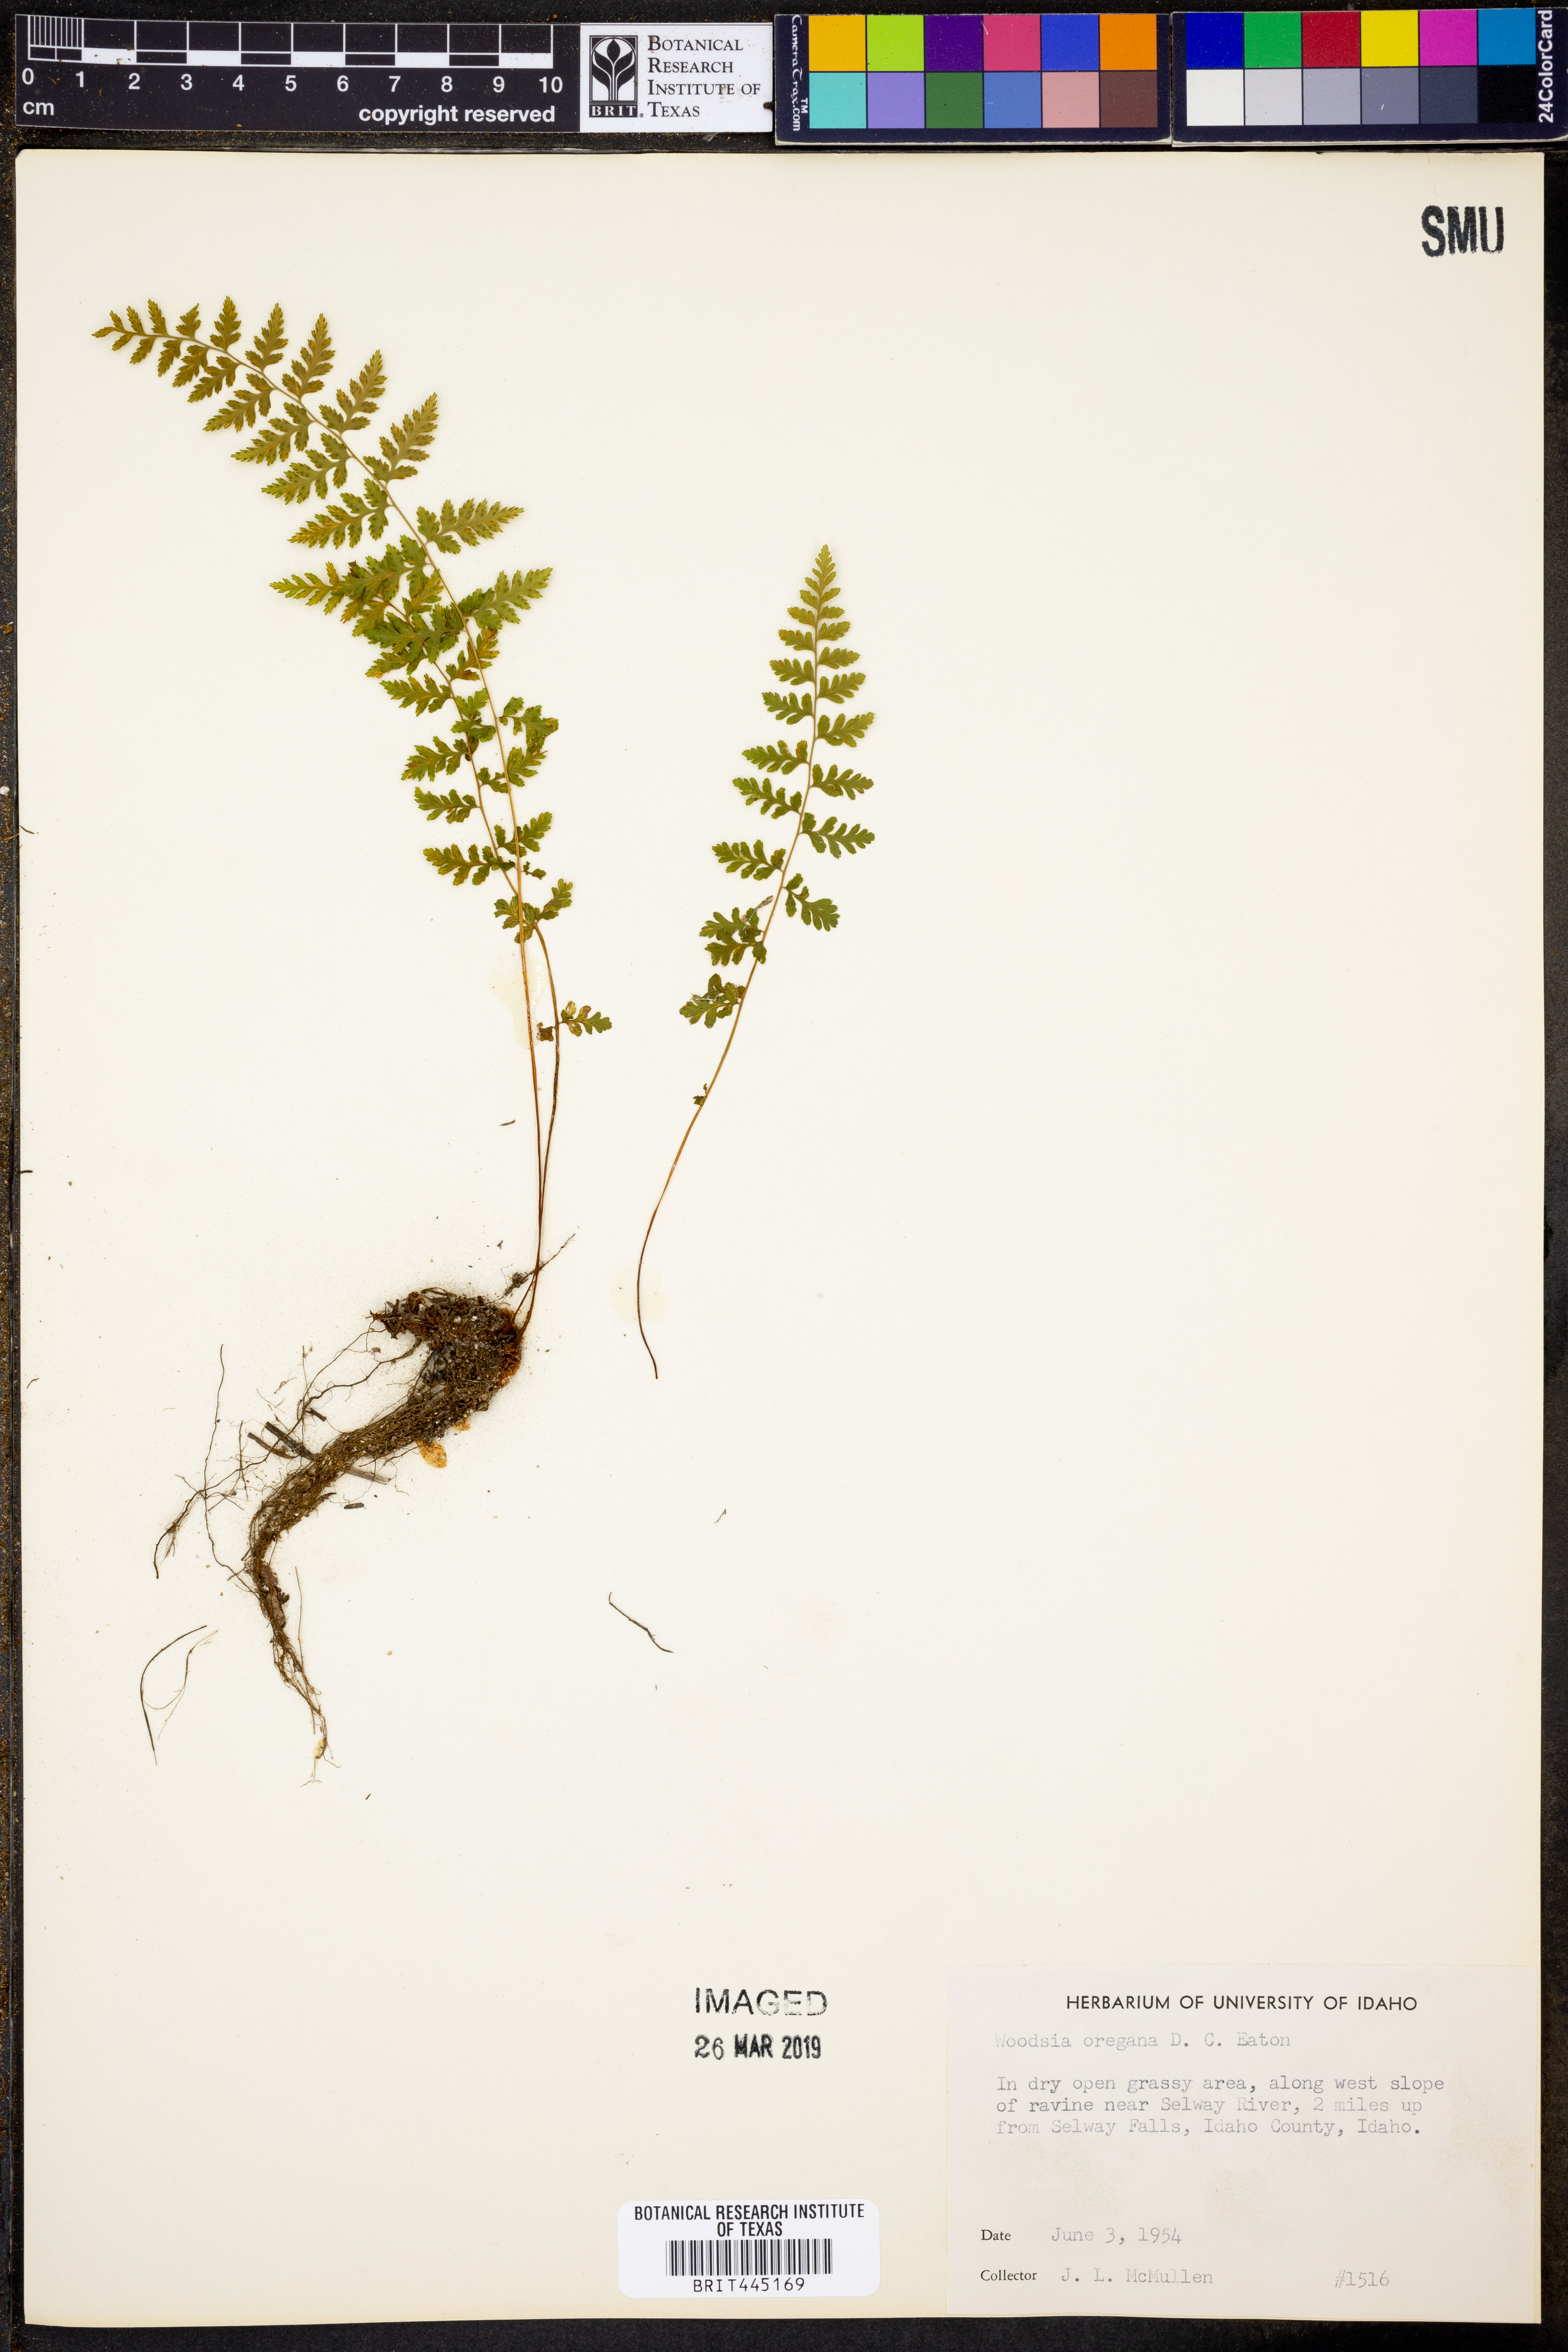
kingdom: Plantae
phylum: Tracheophyta
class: Polypodiopsida
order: Polypodiales
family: Woodsiaceae
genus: Physematium
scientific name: Physematium oreganum
